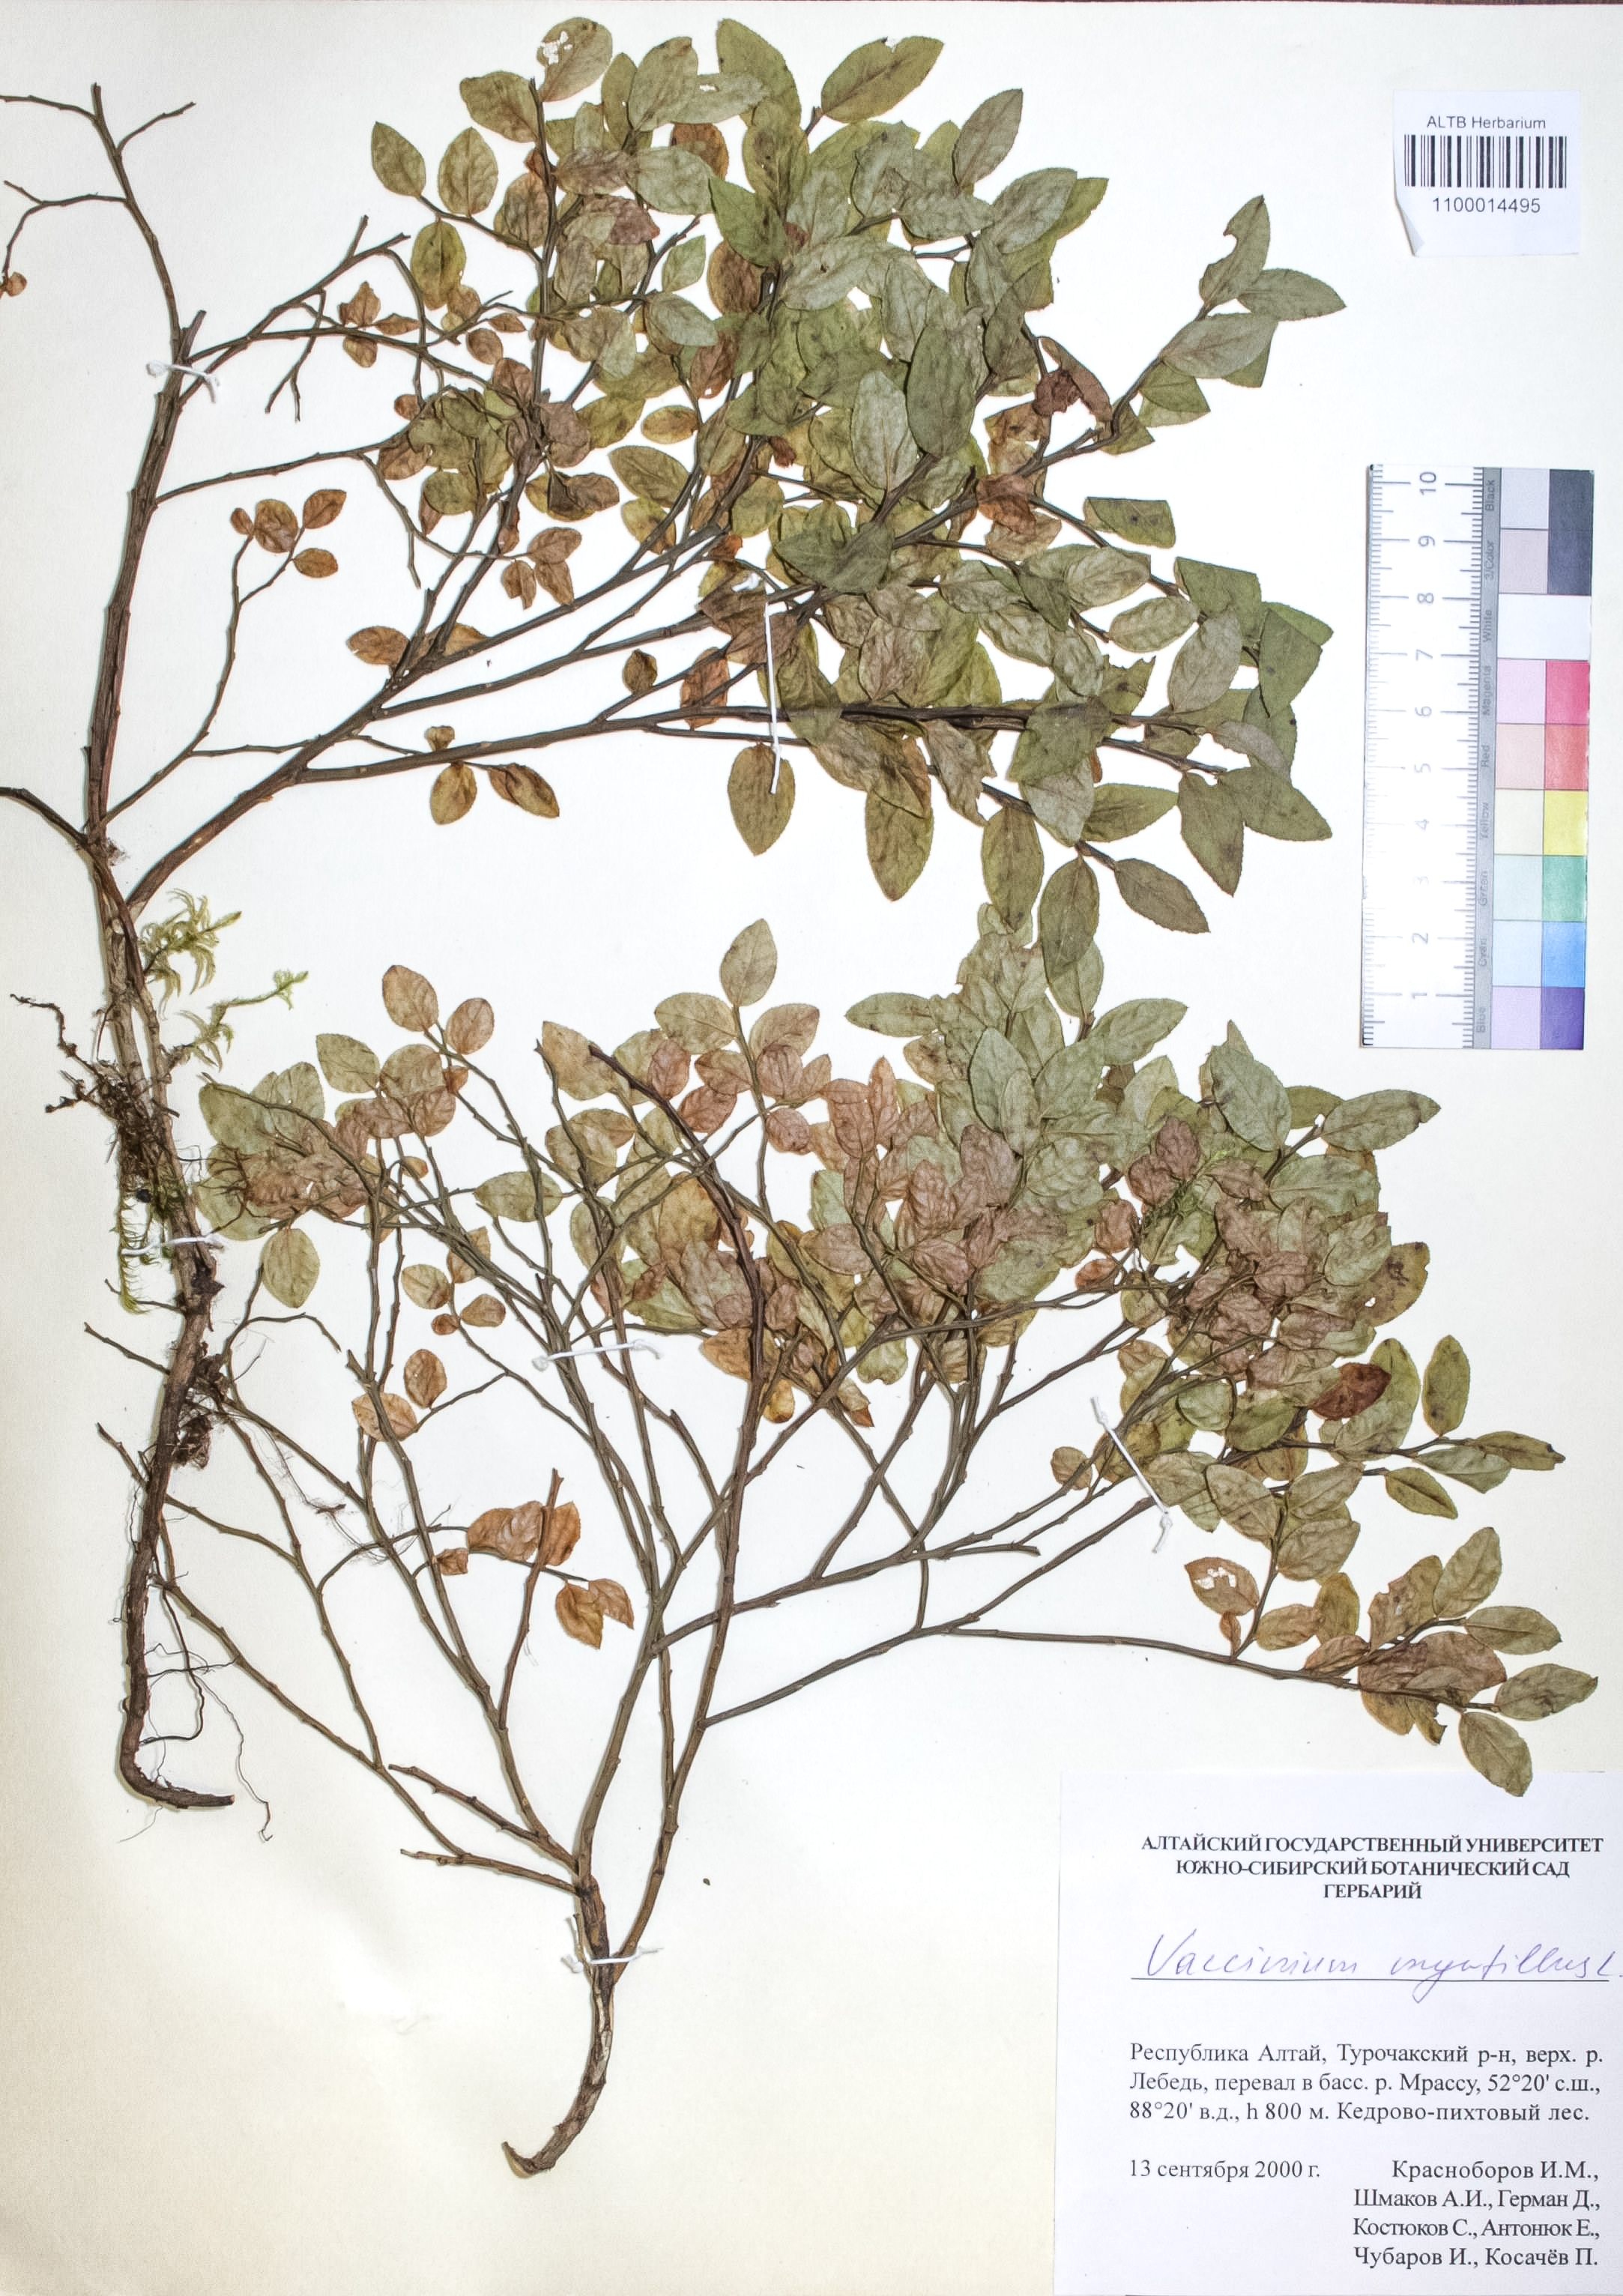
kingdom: Plantae
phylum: Tracheophyta
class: Magnoliopsida
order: Ericales
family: Ericaceae
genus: Vaccinium
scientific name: Vaccinium myrtillus
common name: Bilberry
